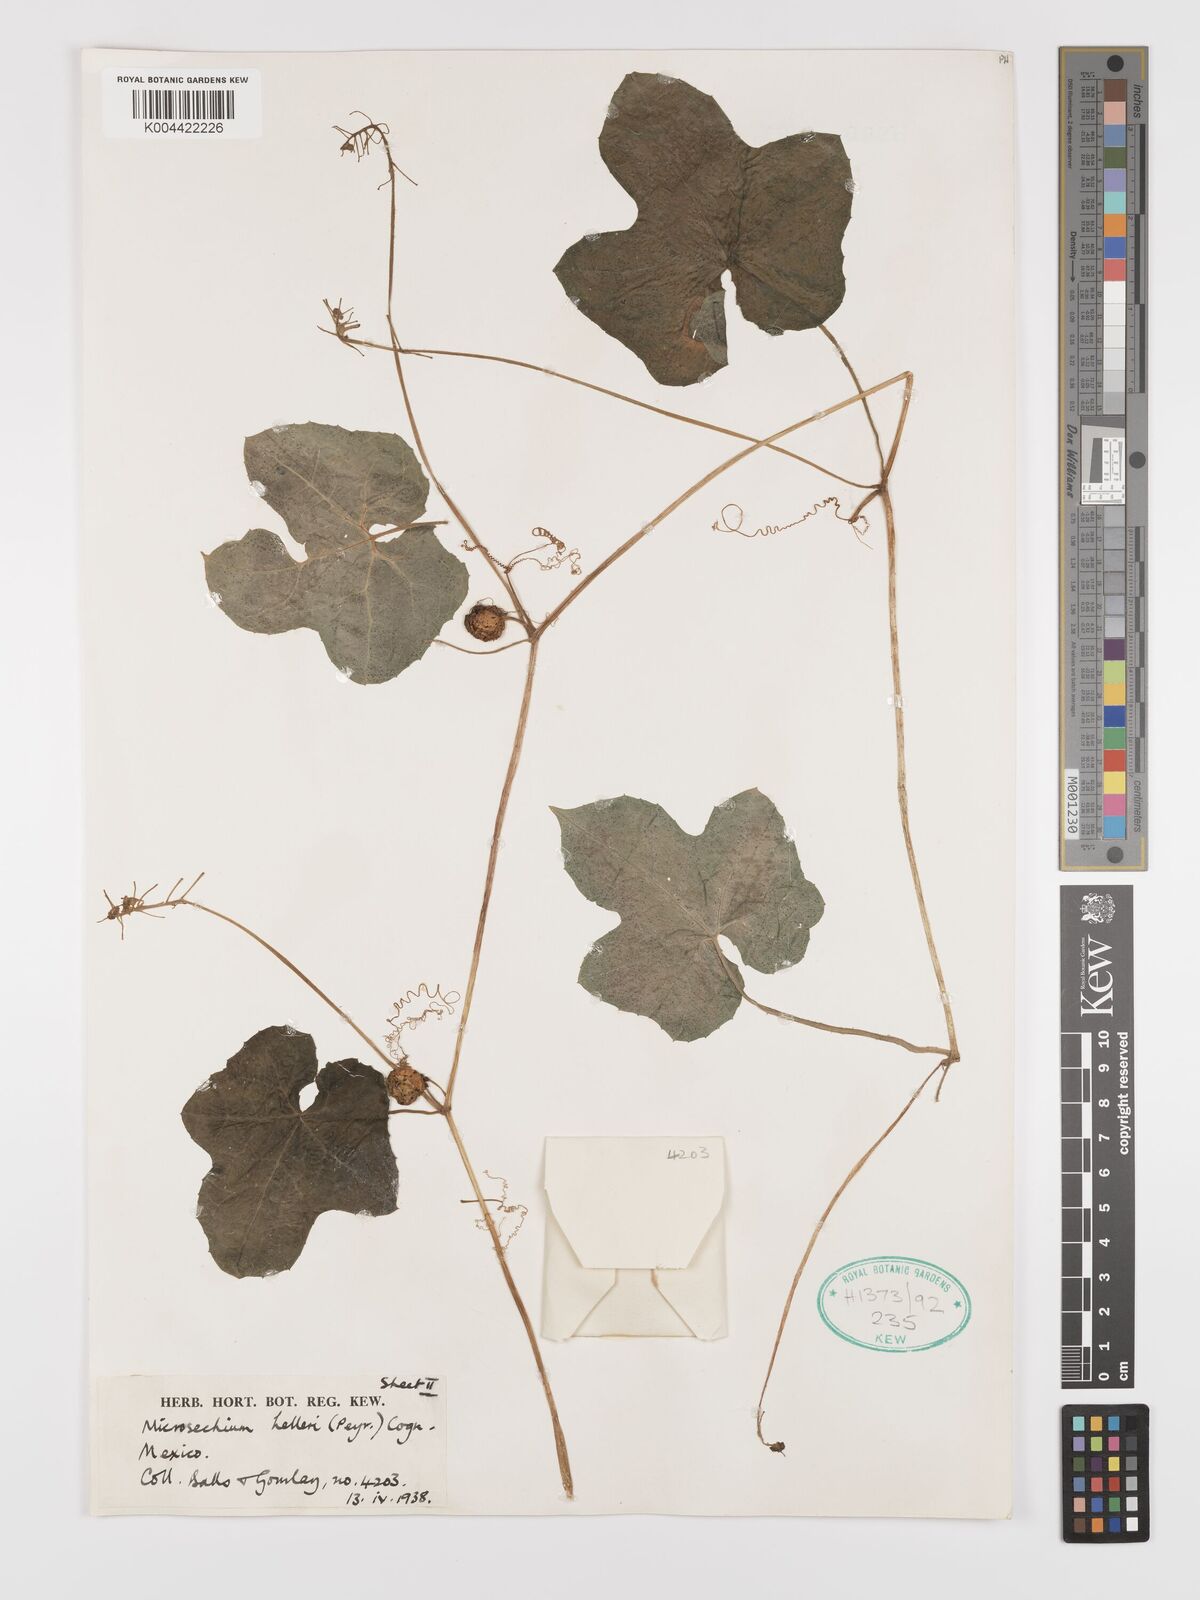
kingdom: Plantae
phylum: Tracheophyta
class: Magnoliopsida
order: Cucurbitales
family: Cucurbitaceae
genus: Microsechium
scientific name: Microsechium palmatum
